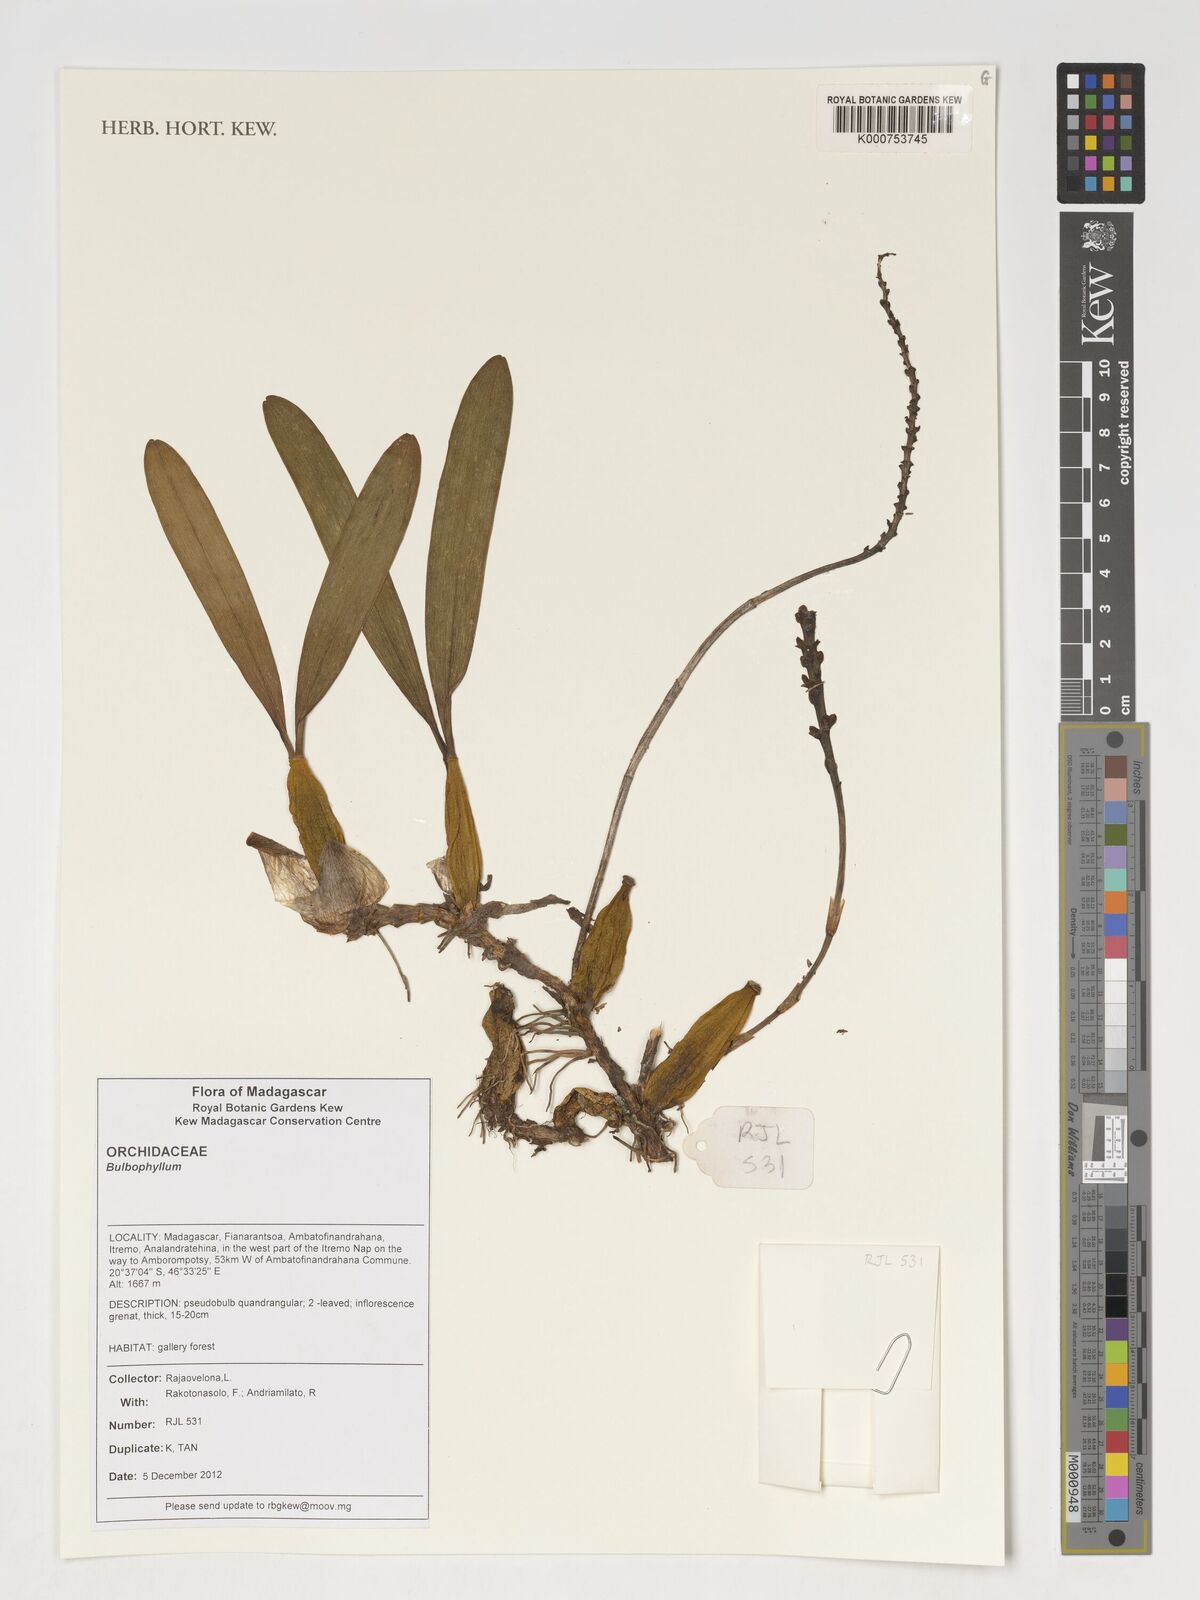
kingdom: Plantae
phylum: Tracheophyta
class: Liliopsida
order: Asparagales
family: Orchidaceae
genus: Bulbophyllum
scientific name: Bulbophyllum
